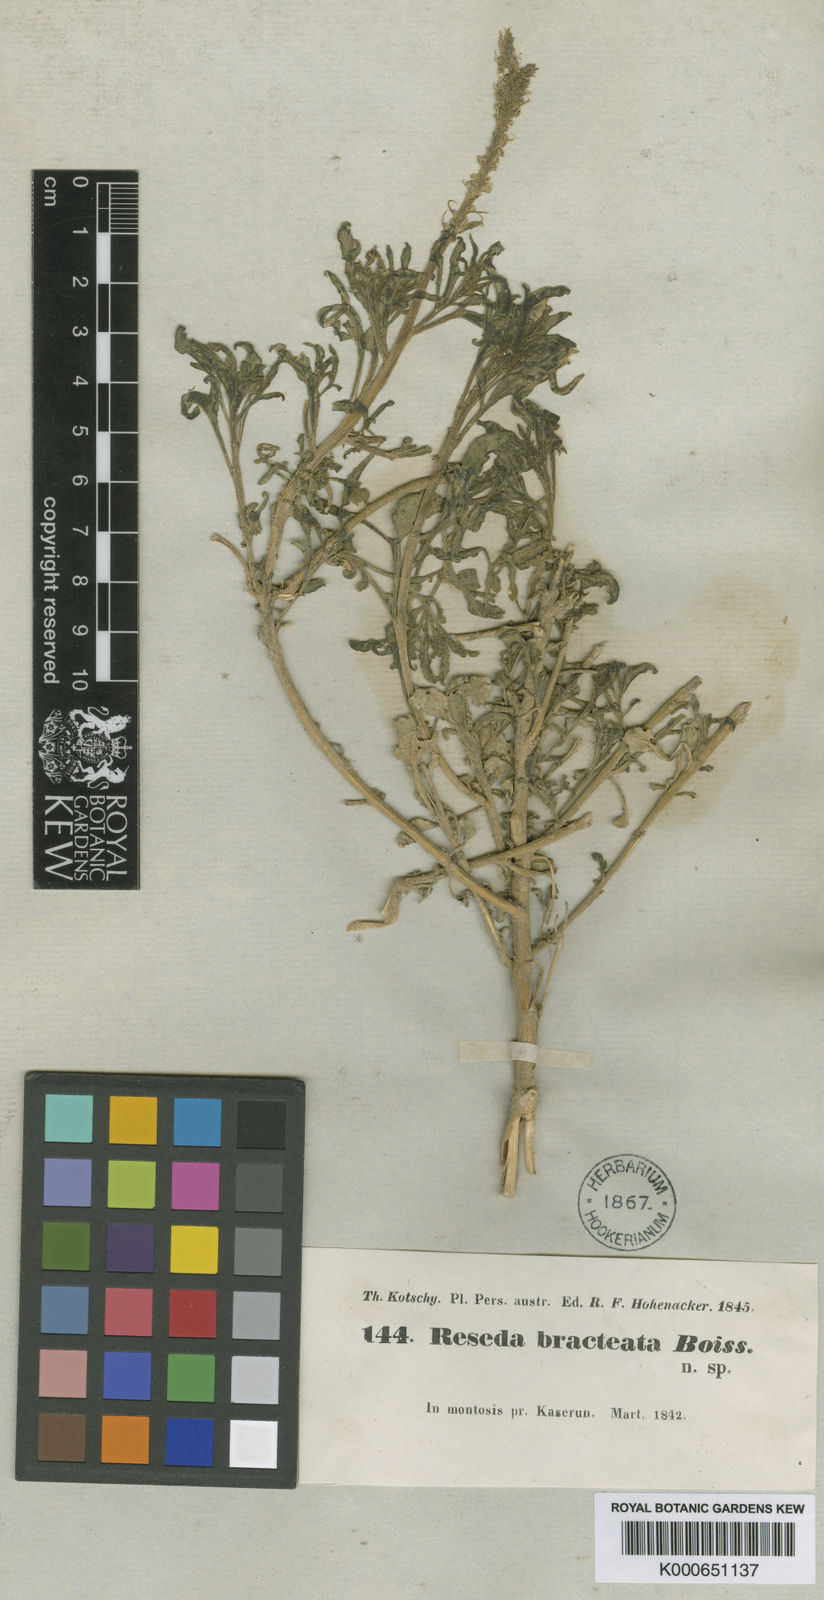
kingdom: Plantae
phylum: Tracheophyta
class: Magnoliopsida
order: Brassicales
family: Resedaceae
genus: Reseda
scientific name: Reseda aucheri
